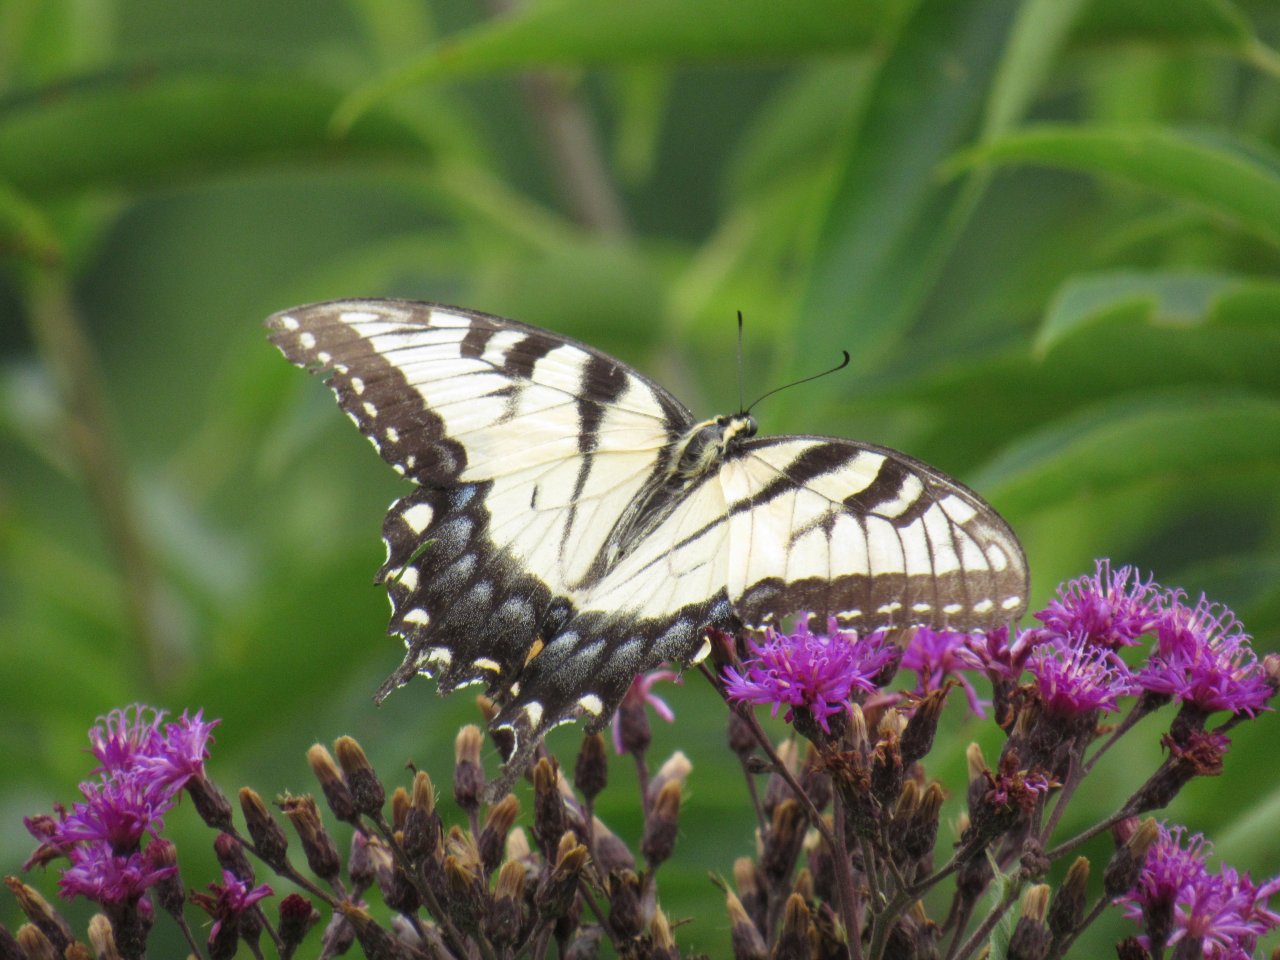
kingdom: Animalia
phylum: Arthropoda
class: Insecta
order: Lepidoptera
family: Papilionidae
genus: Pterourus
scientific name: Pterourus glaucus
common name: Eastern Tiger Swallowtail
